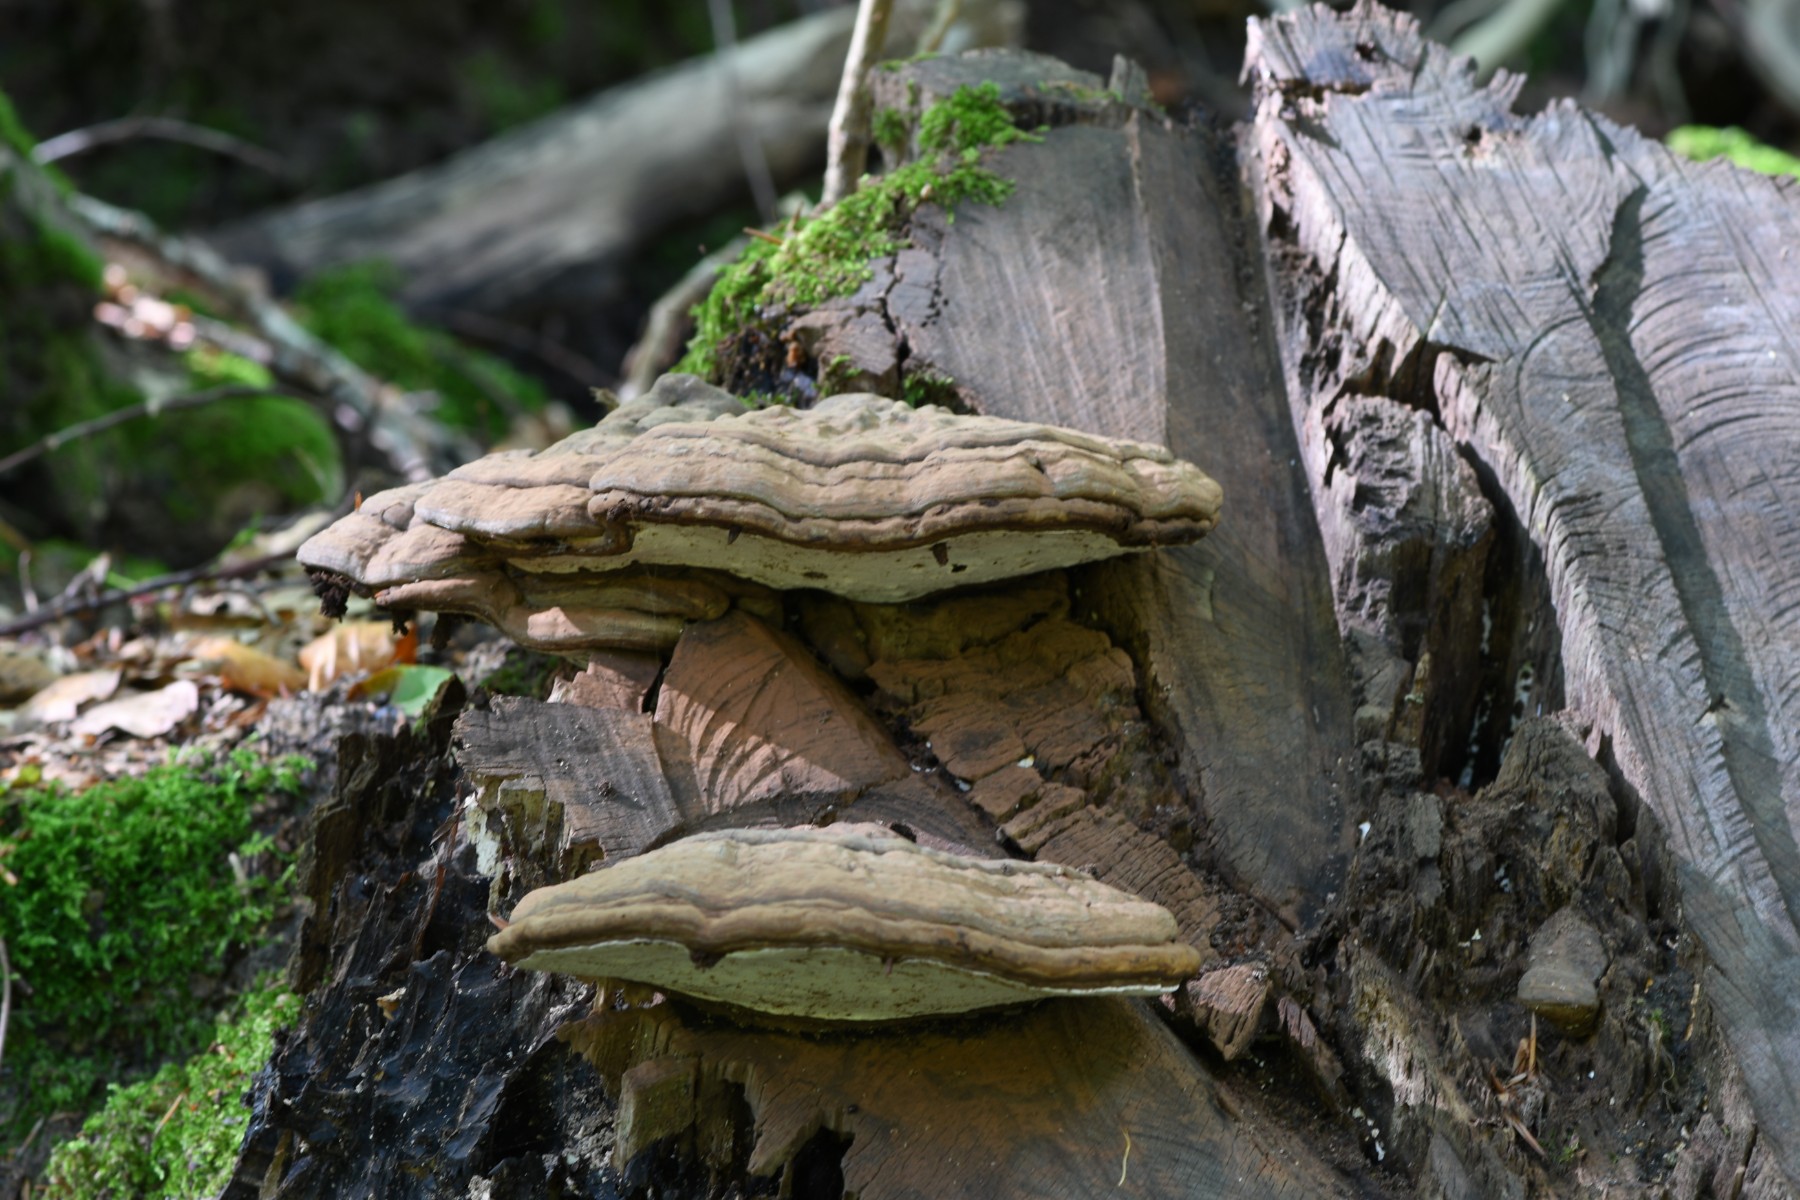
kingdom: Fungi
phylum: Basidiomycota
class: Agaricomycetes
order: Polyporales
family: Polyporaceae
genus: Ganoderma
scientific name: Ganoderma applanatum
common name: flad lakporesvamp
